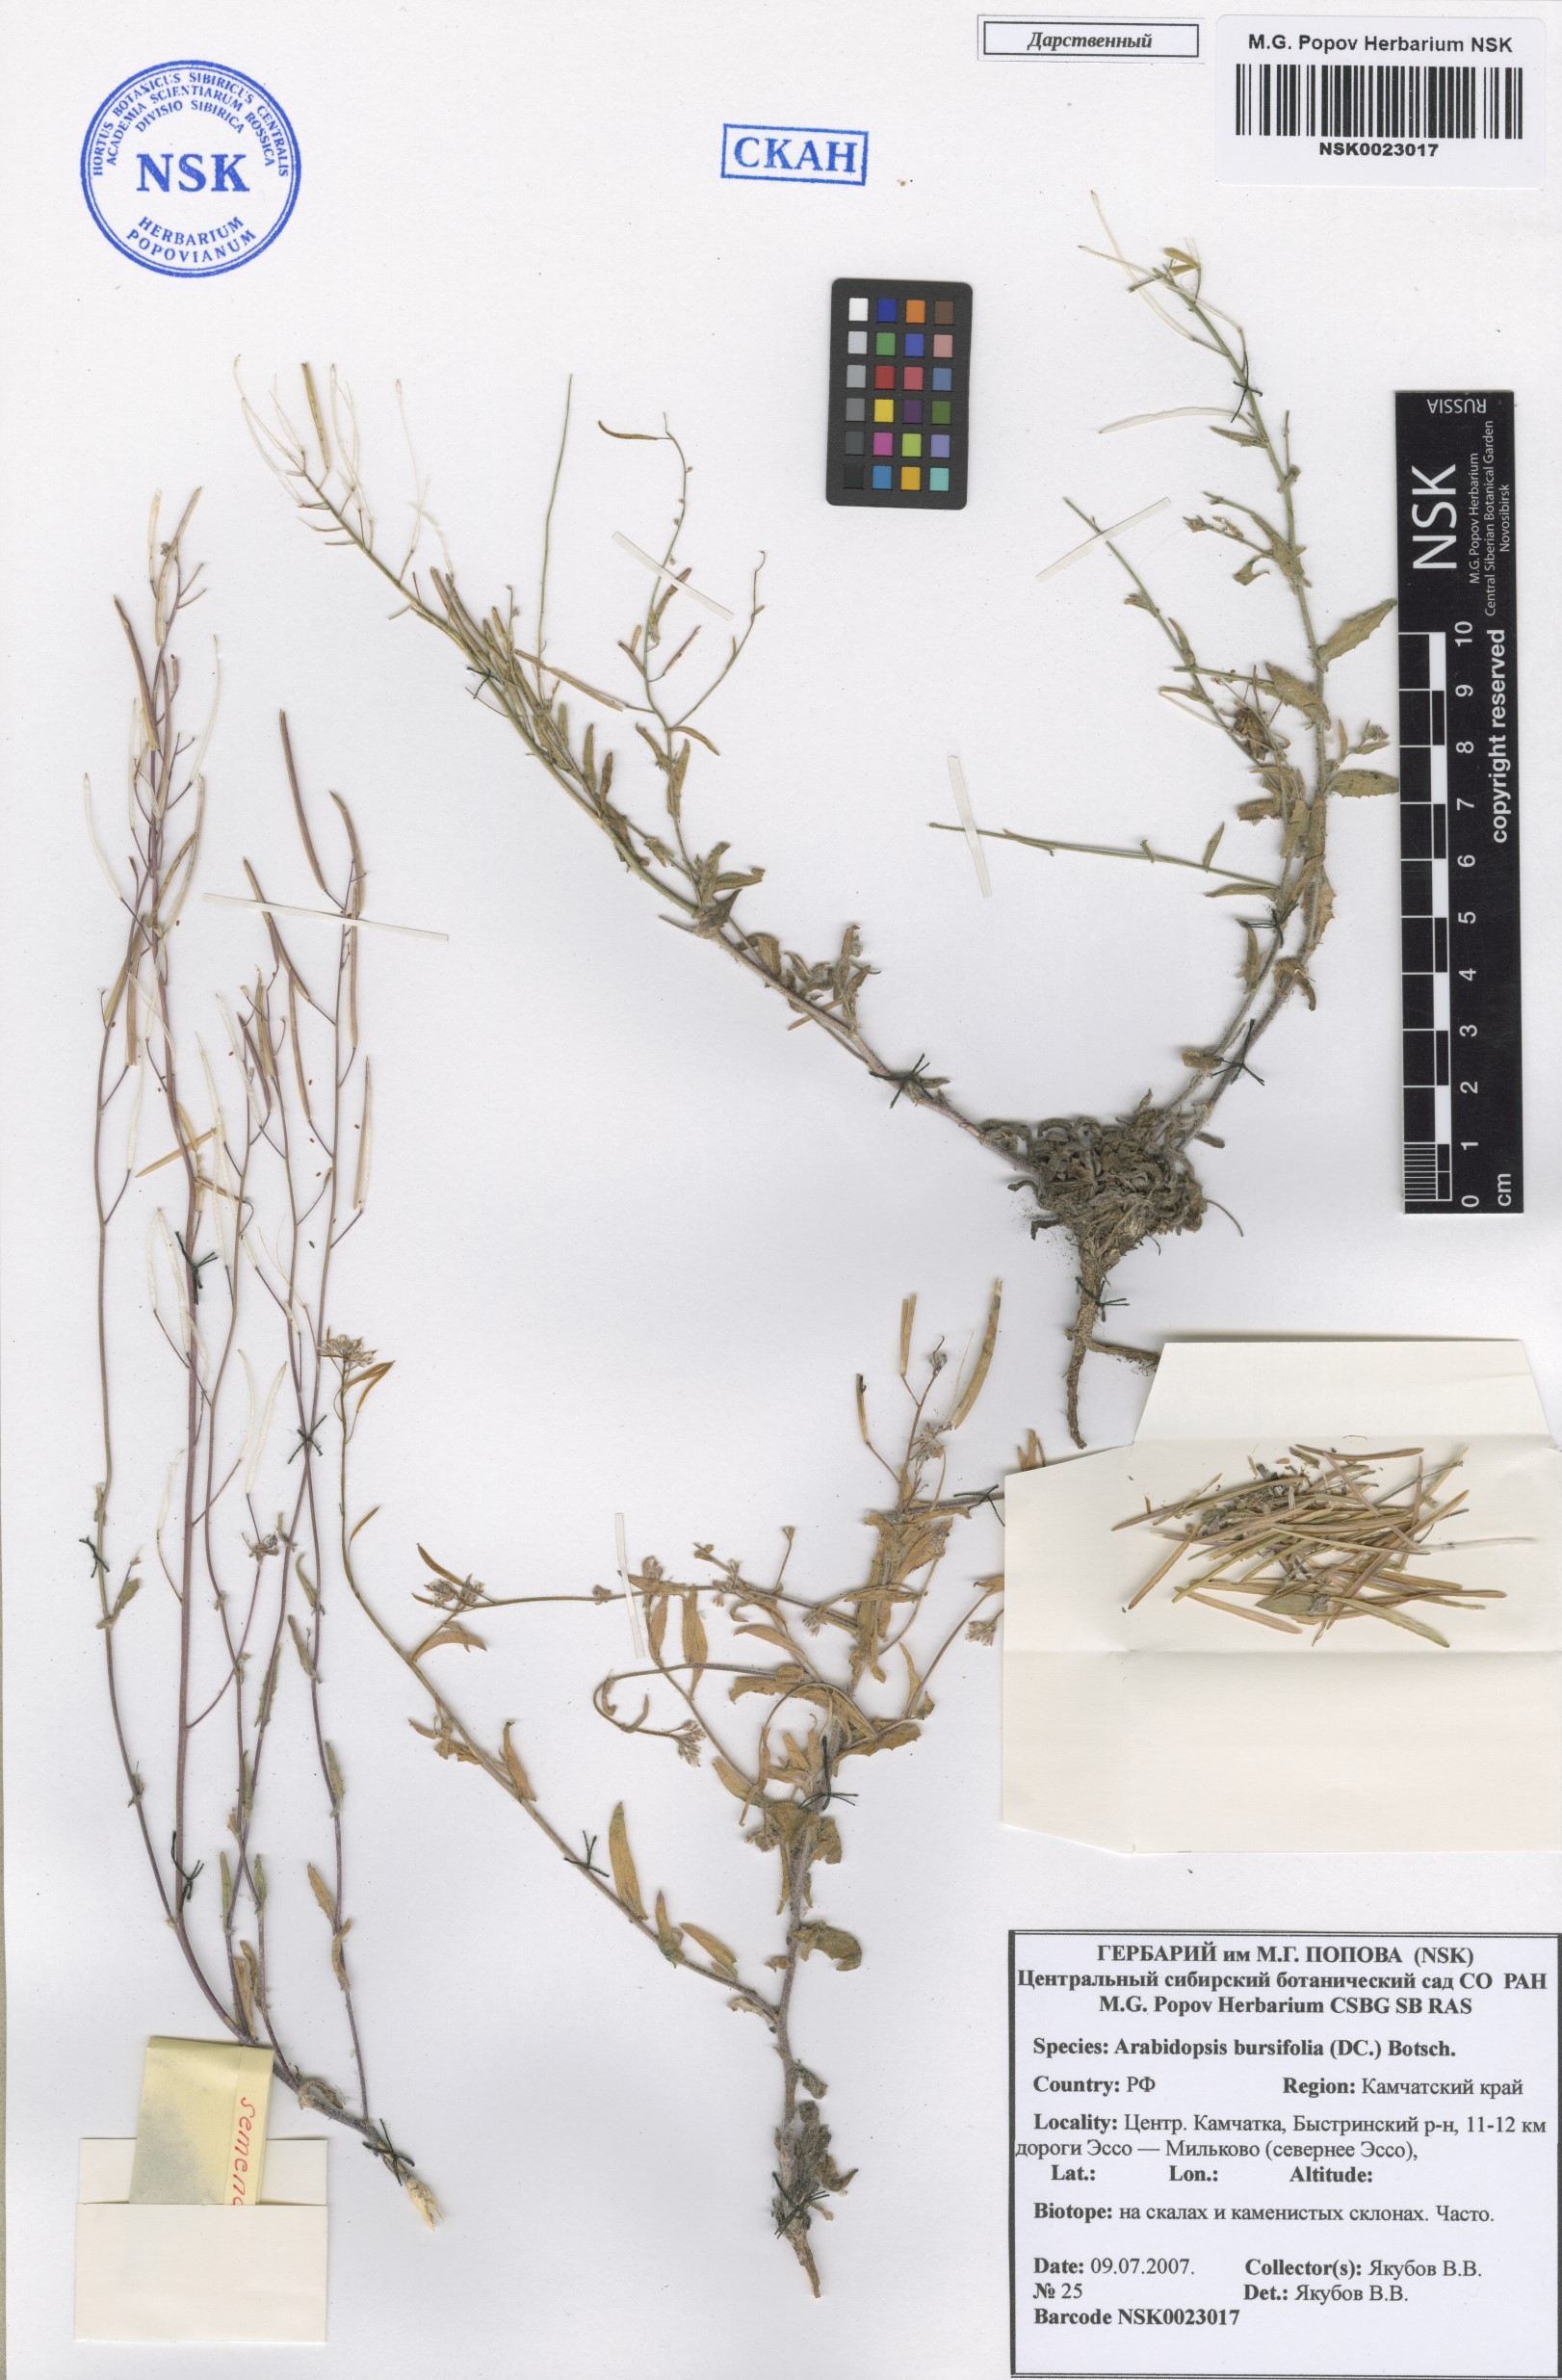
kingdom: Plantae
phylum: Tracheophyta
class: Magnoliopsida
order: Brassicales
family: Brassicaceae
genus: Crucihimalaya
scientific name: Crucihimalaya bursifolia
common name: Soft fissurewort
